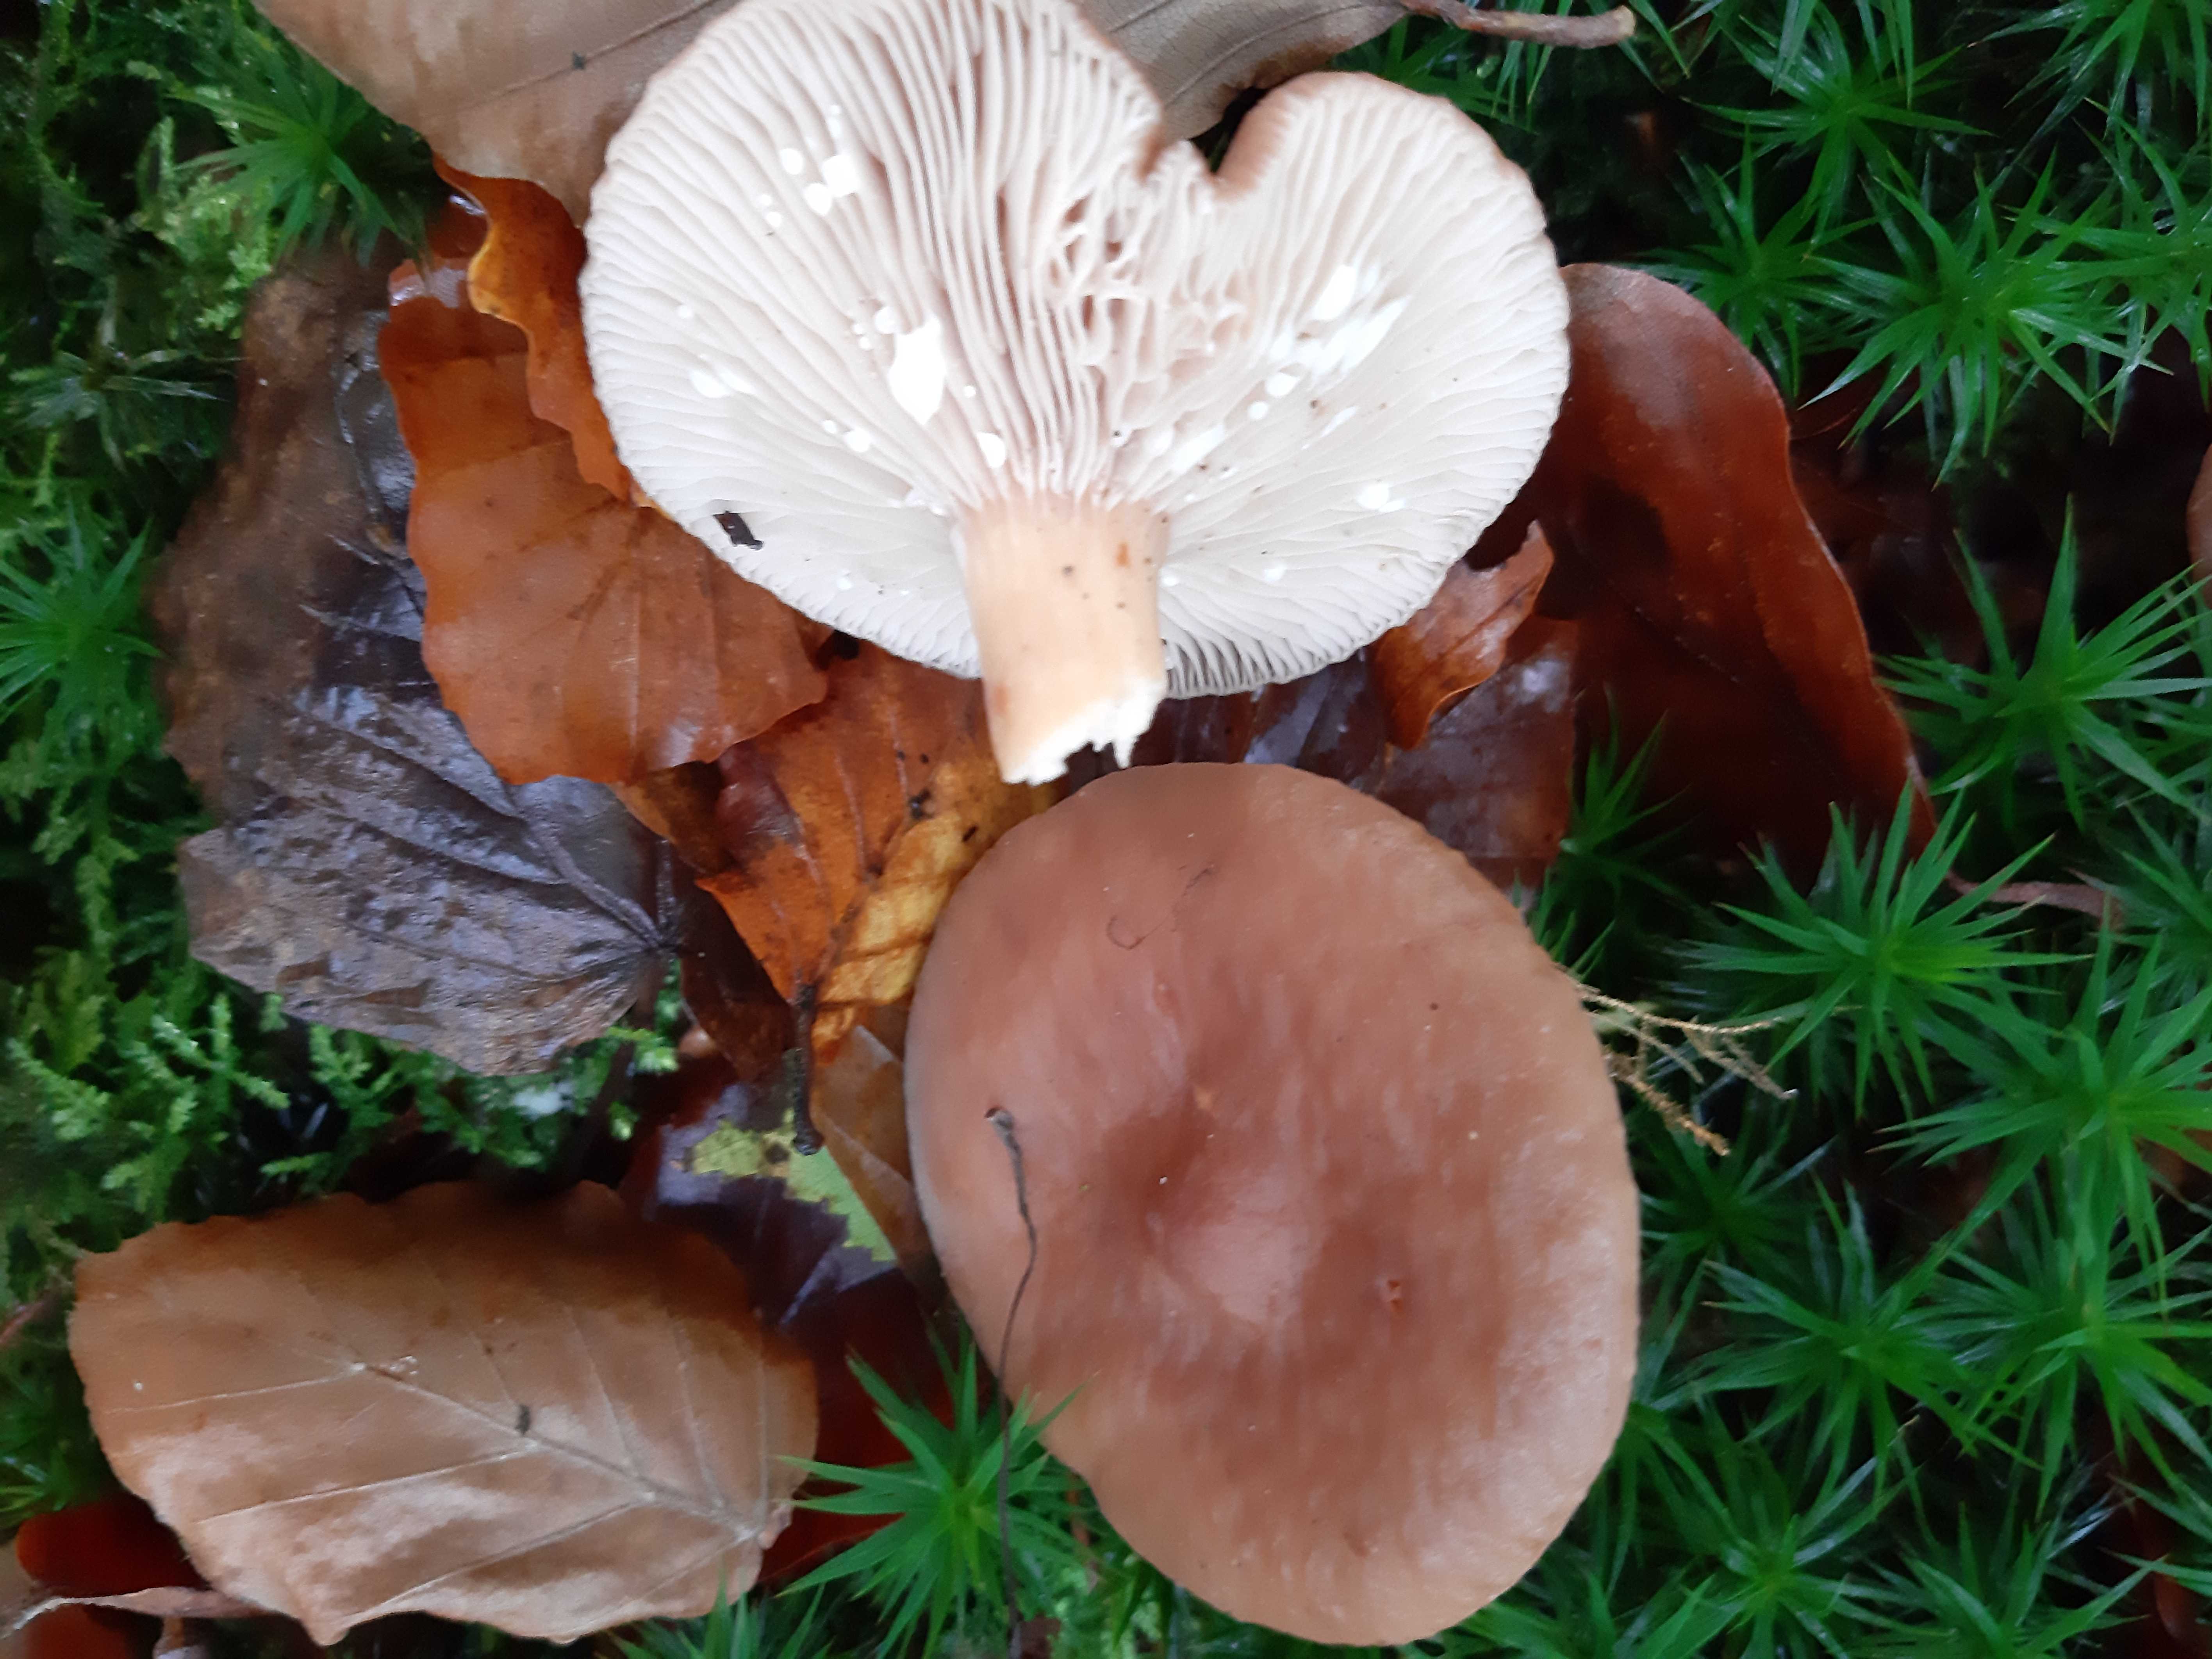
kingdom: Fungi
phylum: Basidiomycota
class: Agaricomycetes
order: Russulales
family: Russulaceae
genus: Lactarius
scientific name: Lactarius subdulcis
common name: sødlig mælkehat
